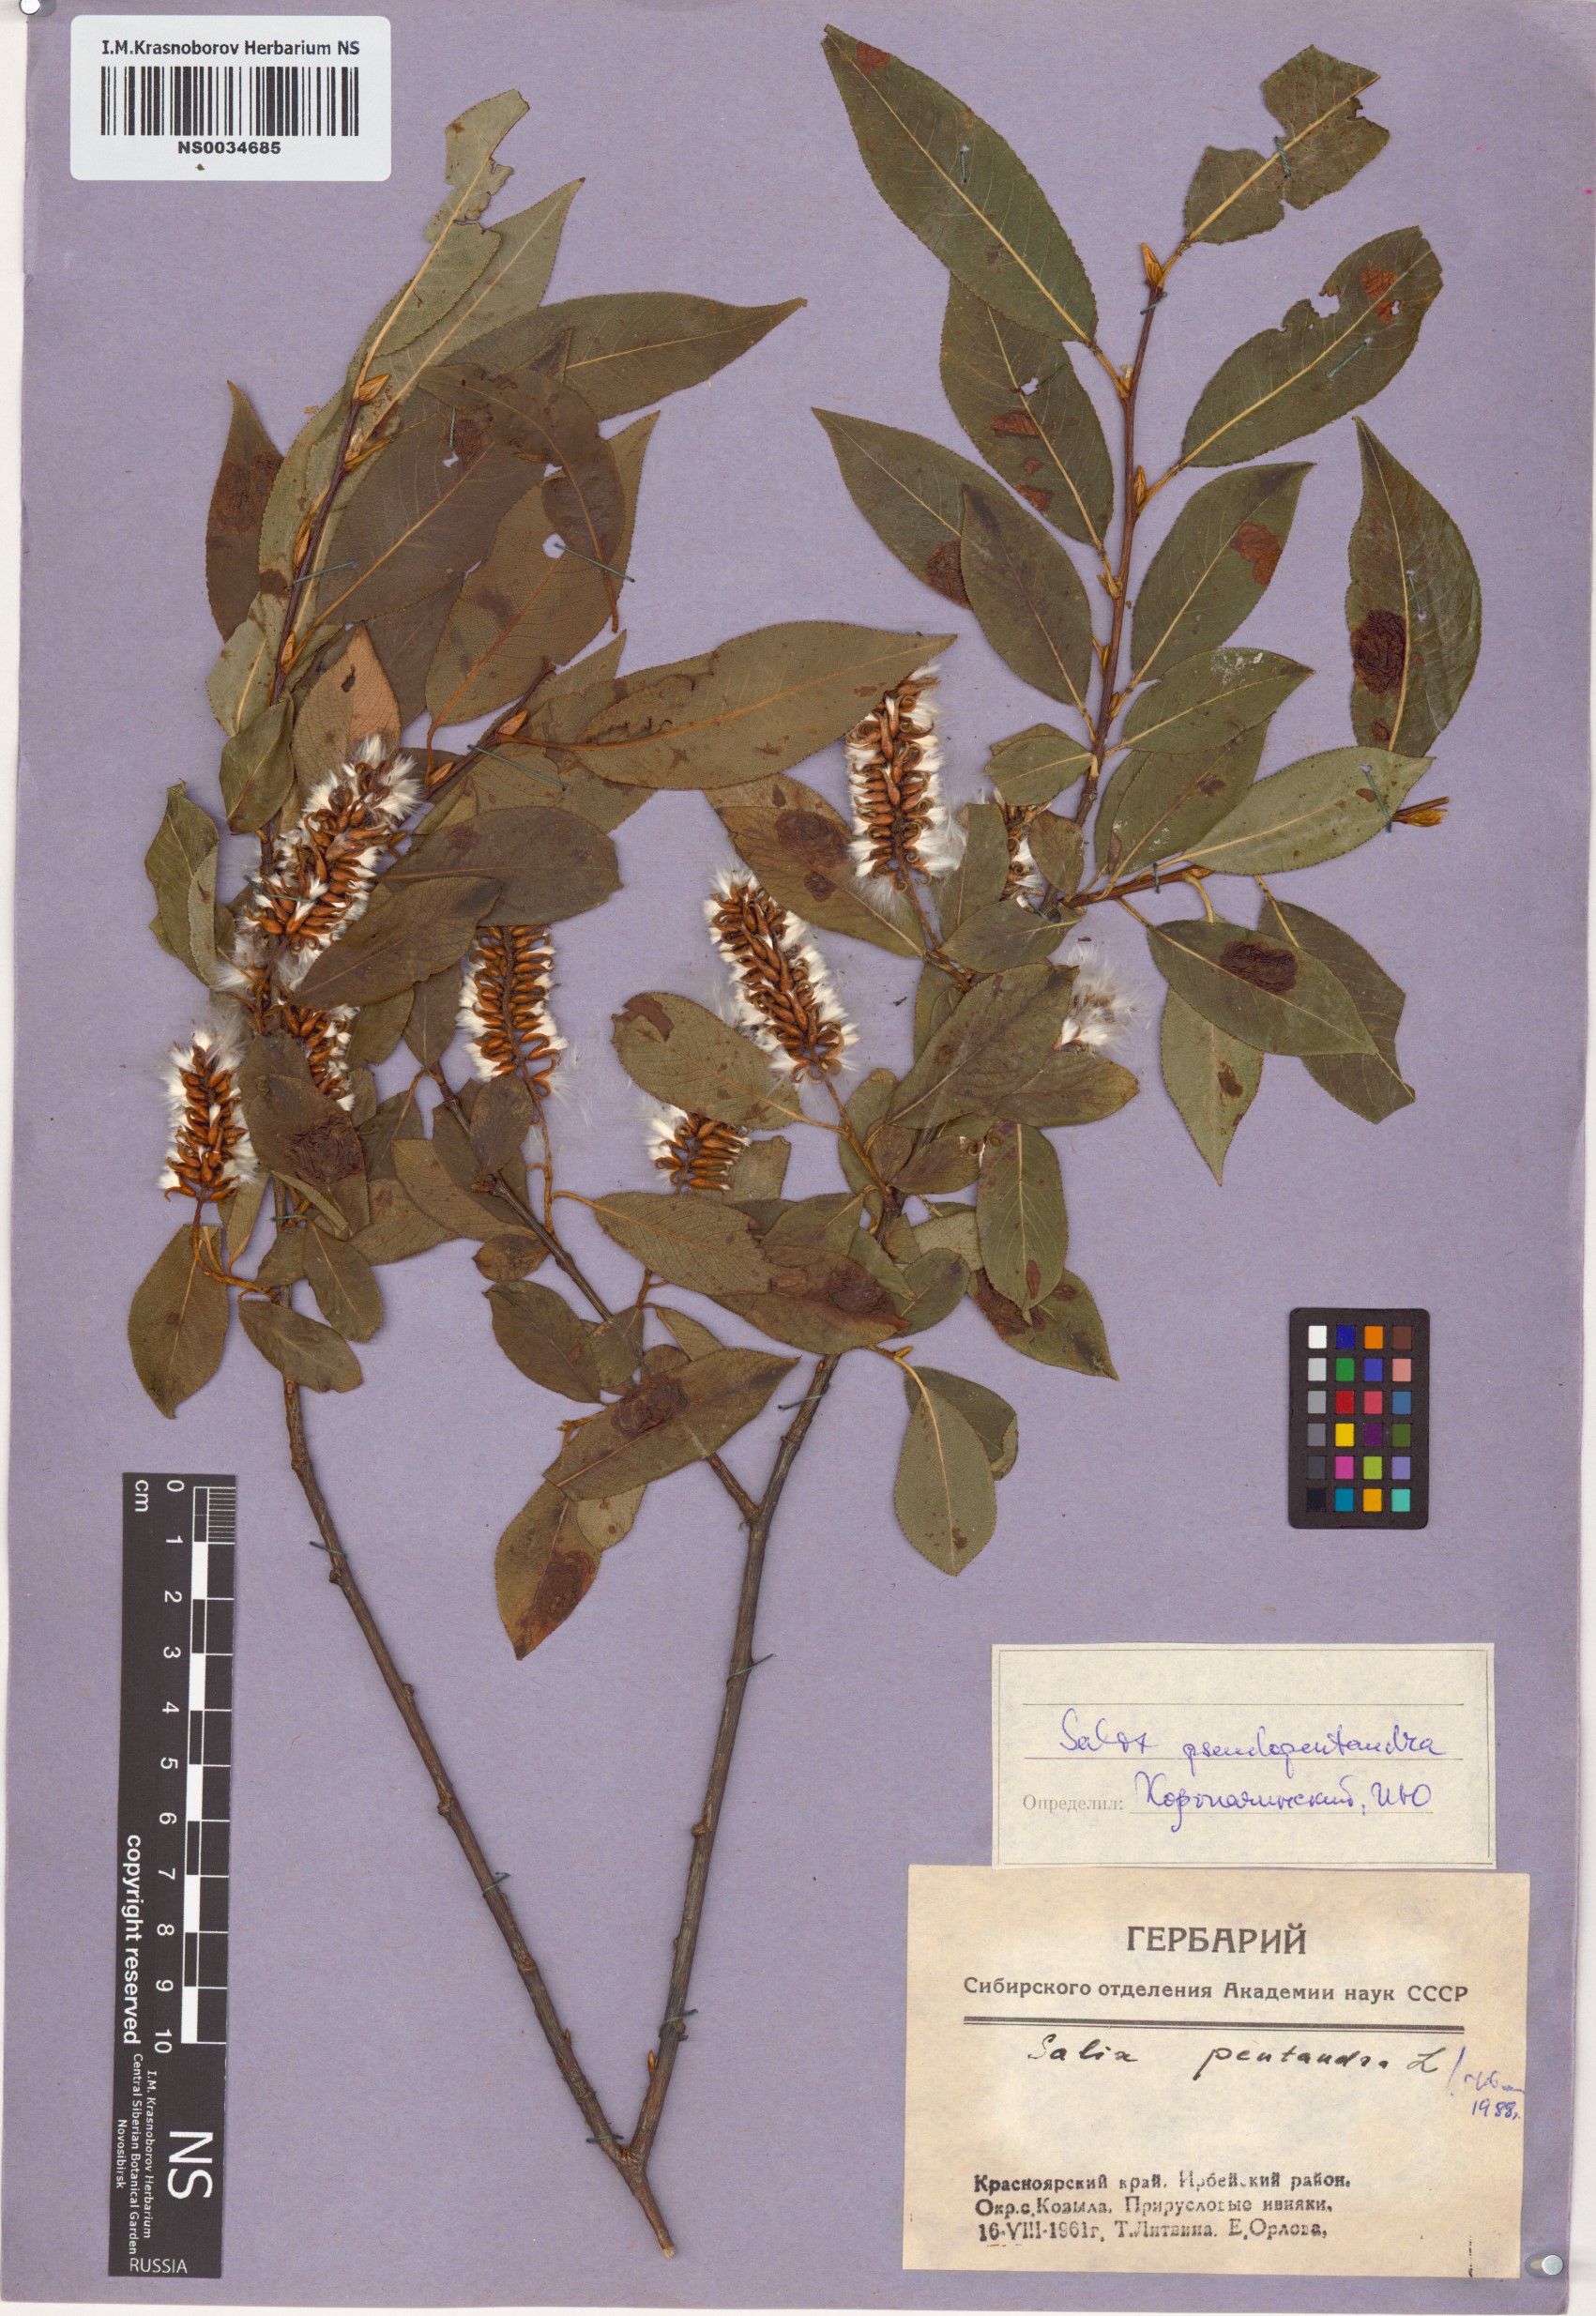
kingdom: Plantae
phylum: Tracheophyta
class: Magnoliopsida
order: Malpighiales
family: Salicaceae
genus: Salix
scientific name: Salix pentandra
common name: Bay willow
